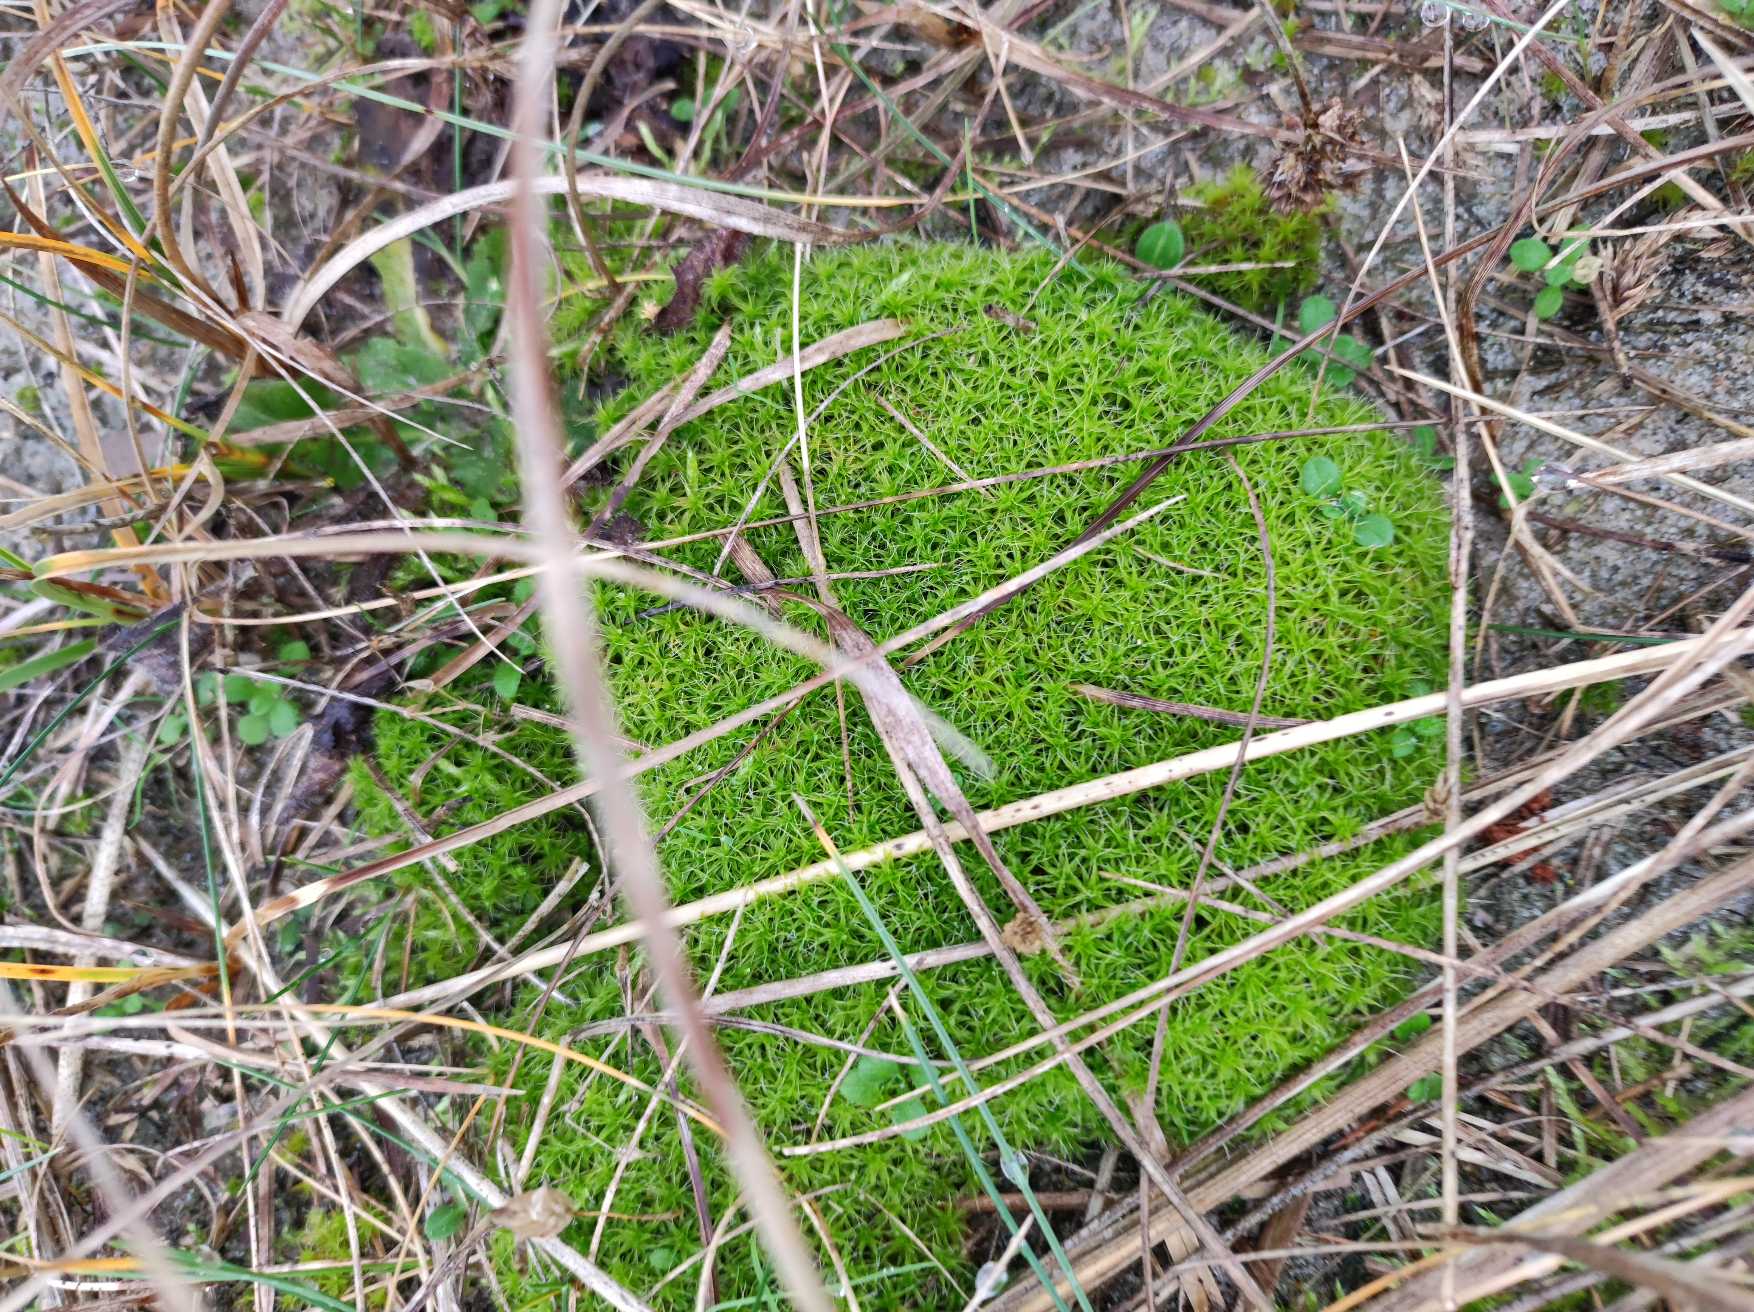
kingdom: Plantae
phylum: Bryophyta
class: Bryopsida
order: Pottiales
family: Pottiaceae
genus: Syntrichia
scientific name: Syntrichia ruralis
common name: Spidsbladet hårstjerne
